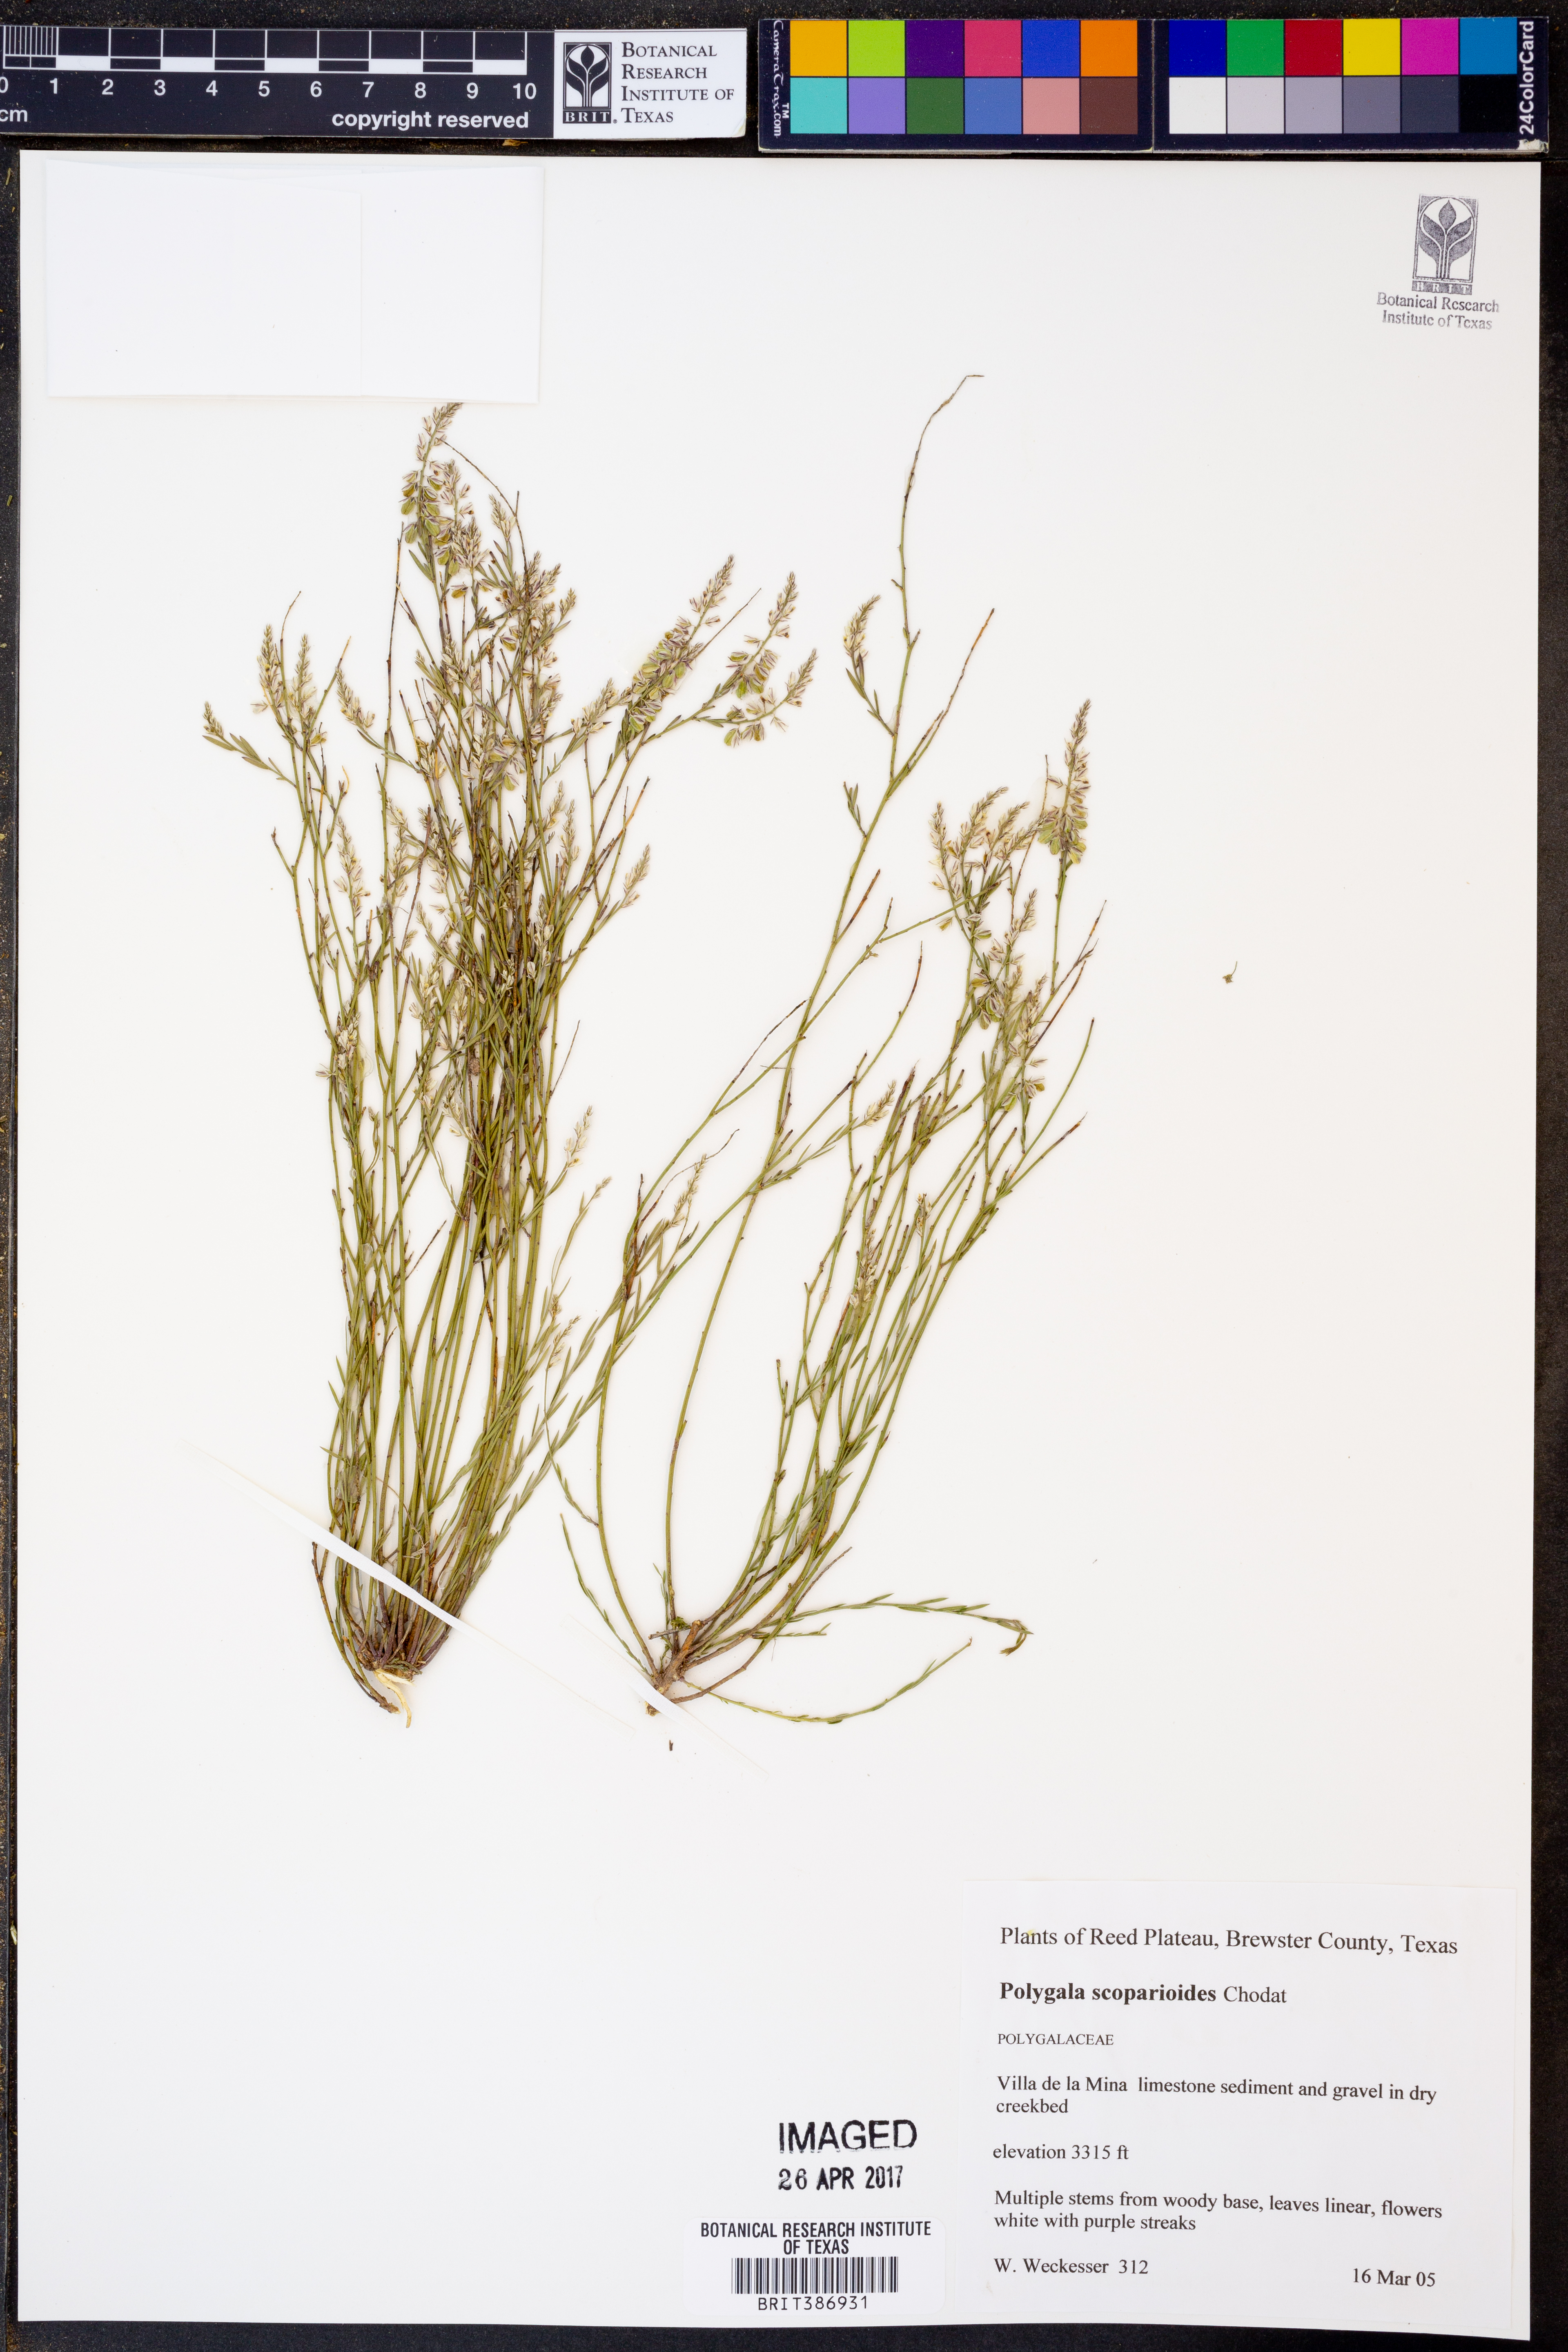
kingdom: Plantae
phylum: Tracheophyta
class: Magnoliopsida
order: Fabales
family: Polygalaceae
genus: Polygala
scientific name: Polygala scoparioides
